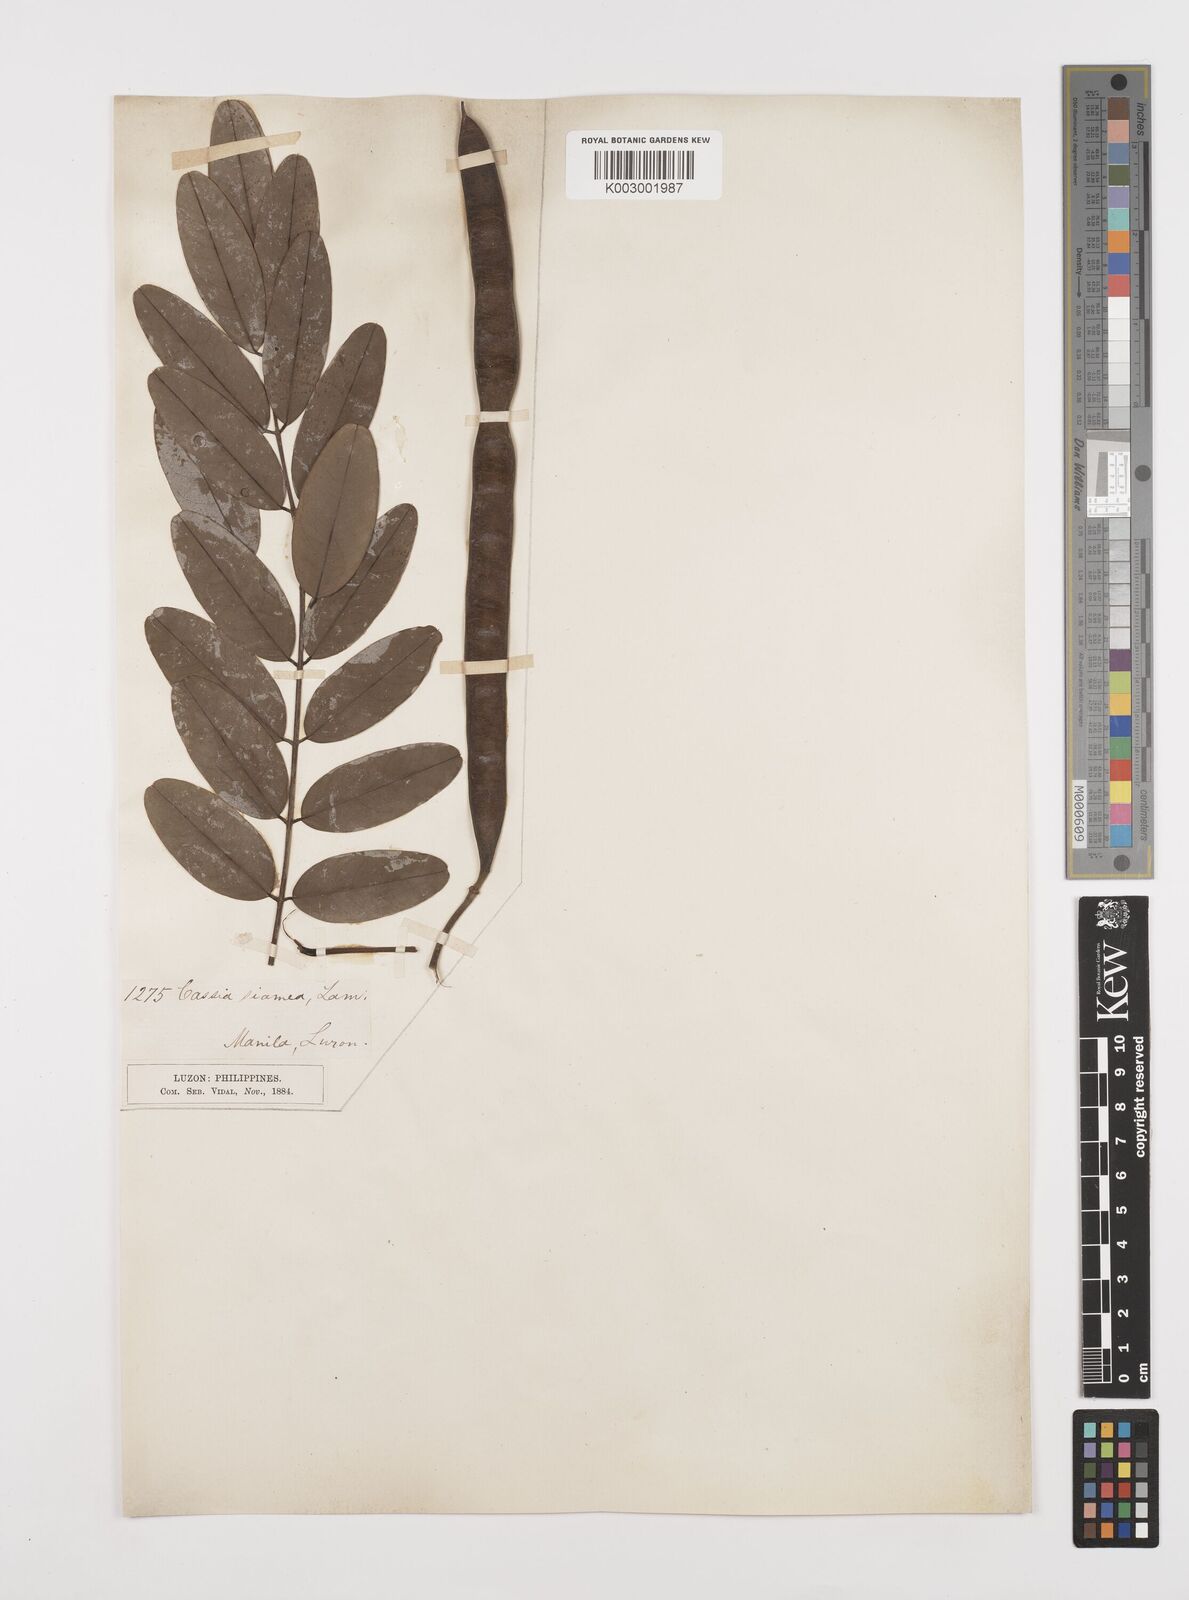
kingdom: Plantae
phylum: Tracheophyta
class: Magnoliopsida
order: Fabales
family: Fabaceae
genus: Senna
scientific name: Senna siamea
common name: Siamese cassia
